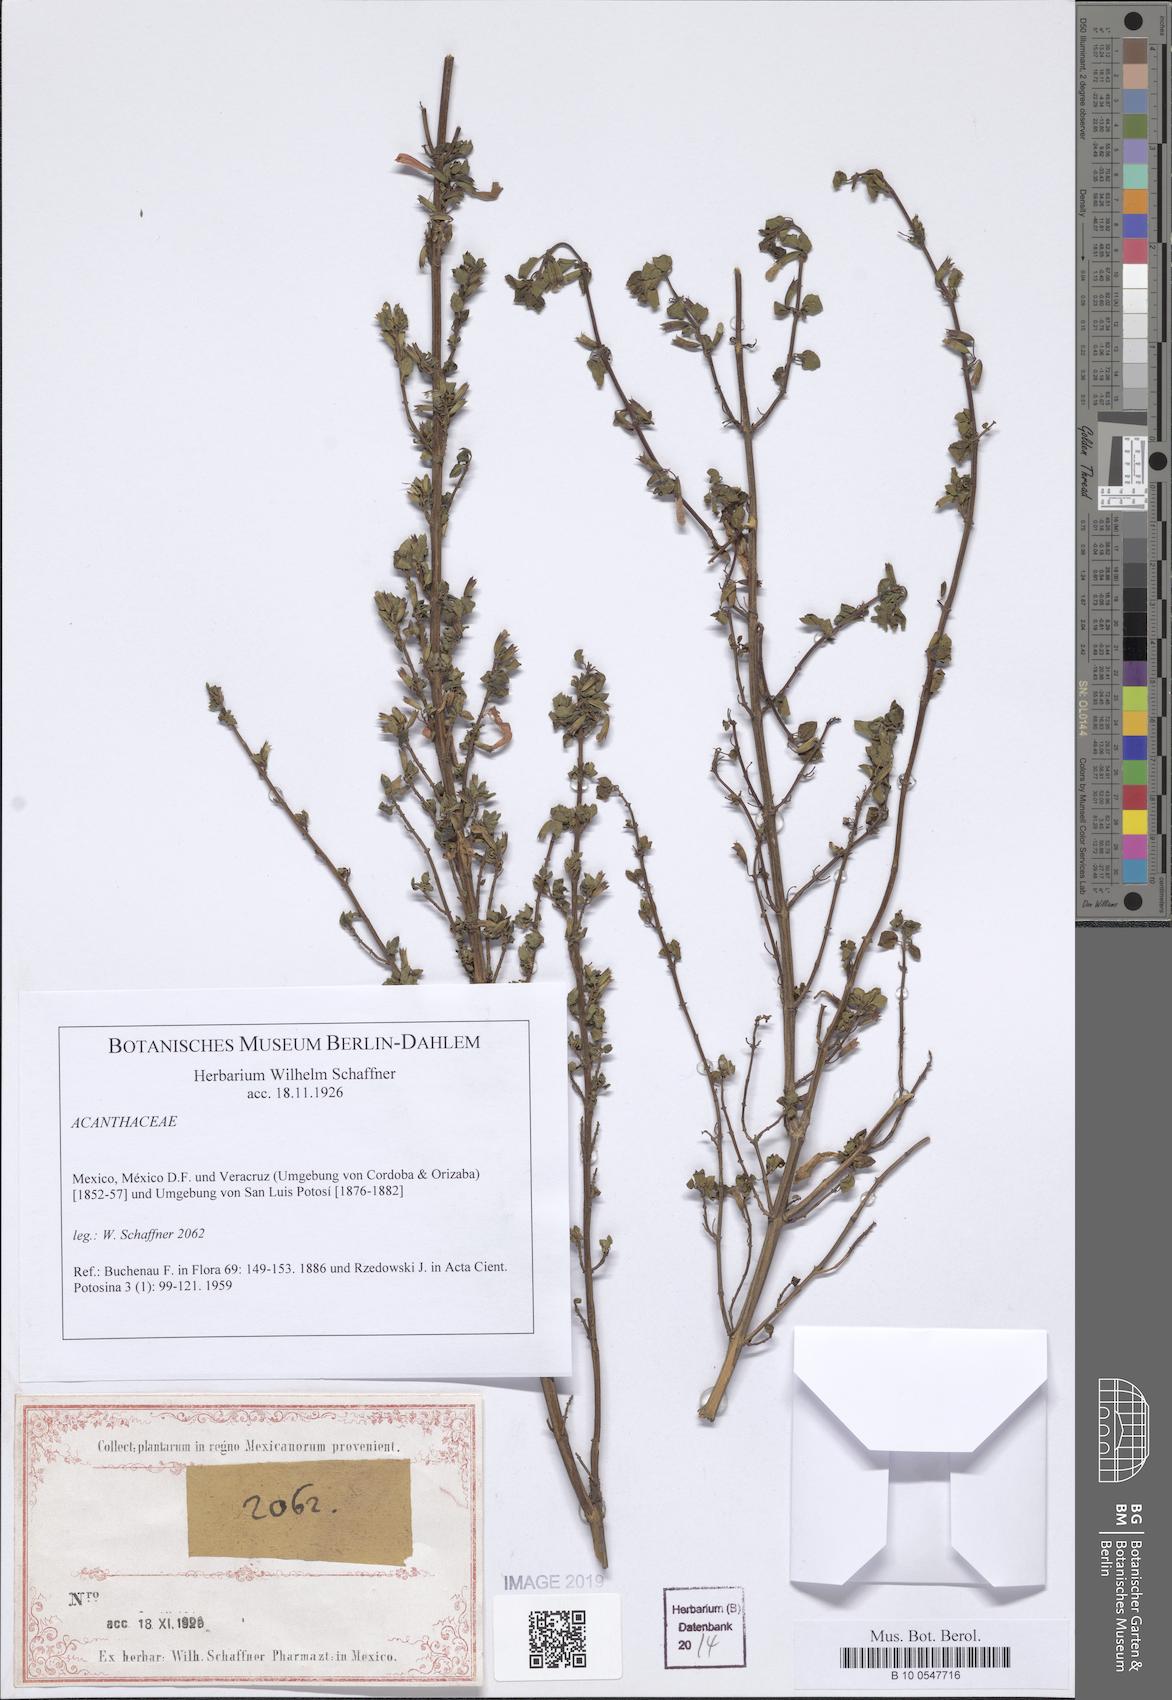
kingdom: Plantae
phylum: Tracheophyta
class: Magnoliopsida
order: Lamiales
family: Acanthaceae
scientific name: Acanthaceae
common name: Acanthaceae
